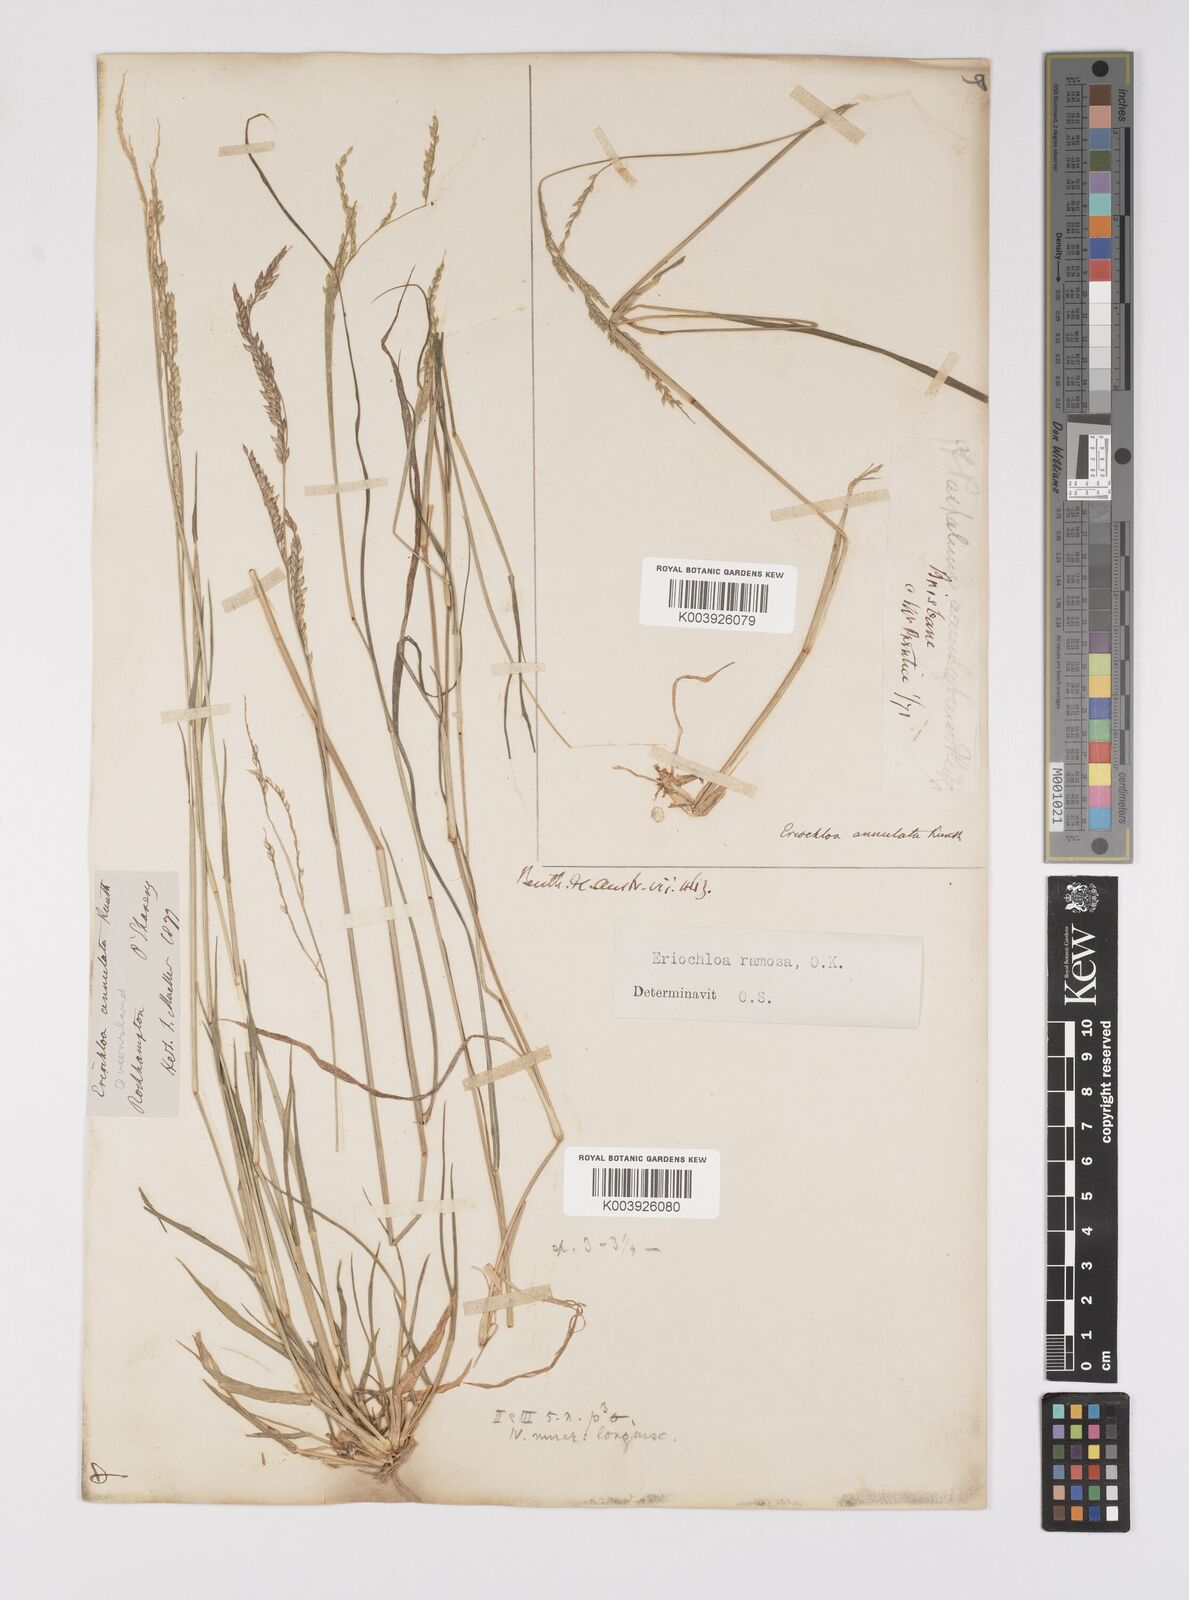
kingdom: Plantae
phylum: Tracheophyta
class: Liliopsida
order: Poales
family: Poaceae
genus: Eriochloa
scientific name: Eriochloa
